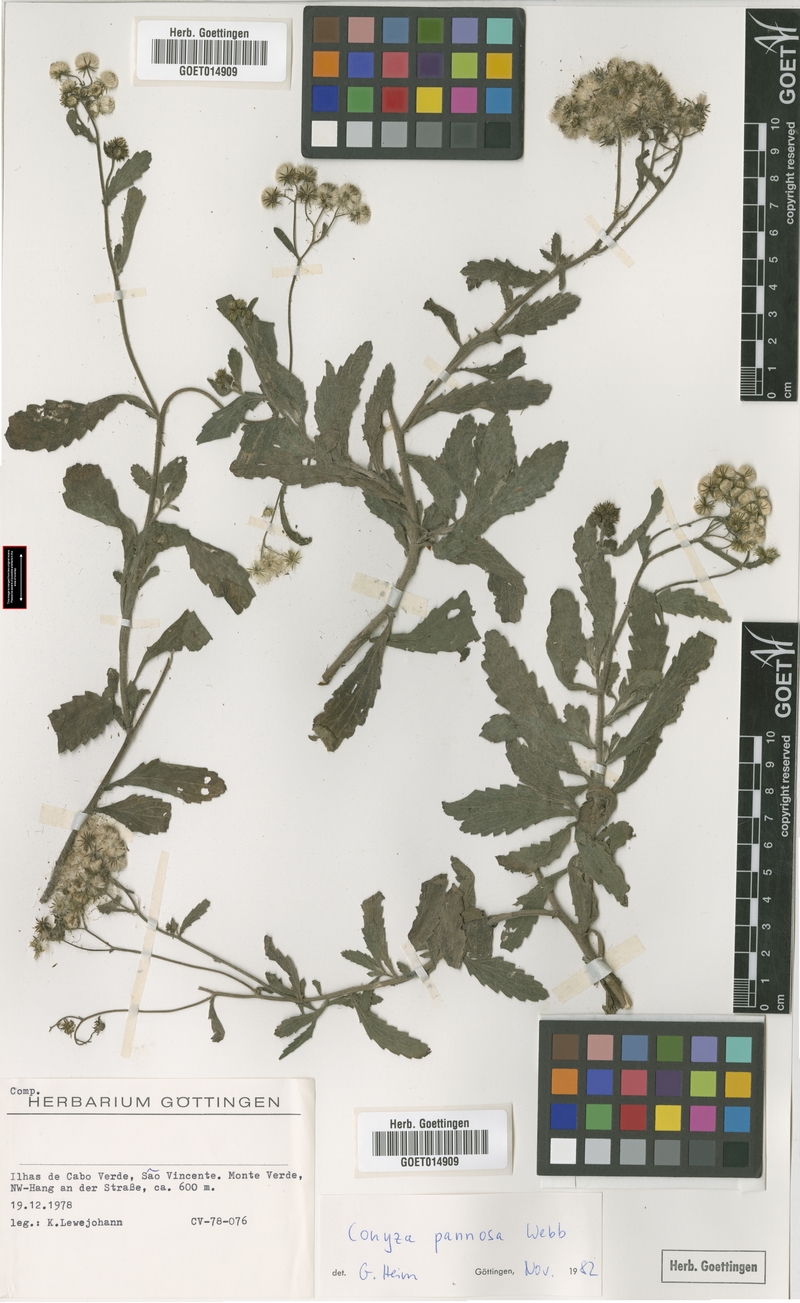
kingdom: Plantae
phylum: Tracheophyta
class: Magnoliopsida
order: Asterales
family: Asteraceae
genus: Conyza
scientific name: Conyza pannosa
